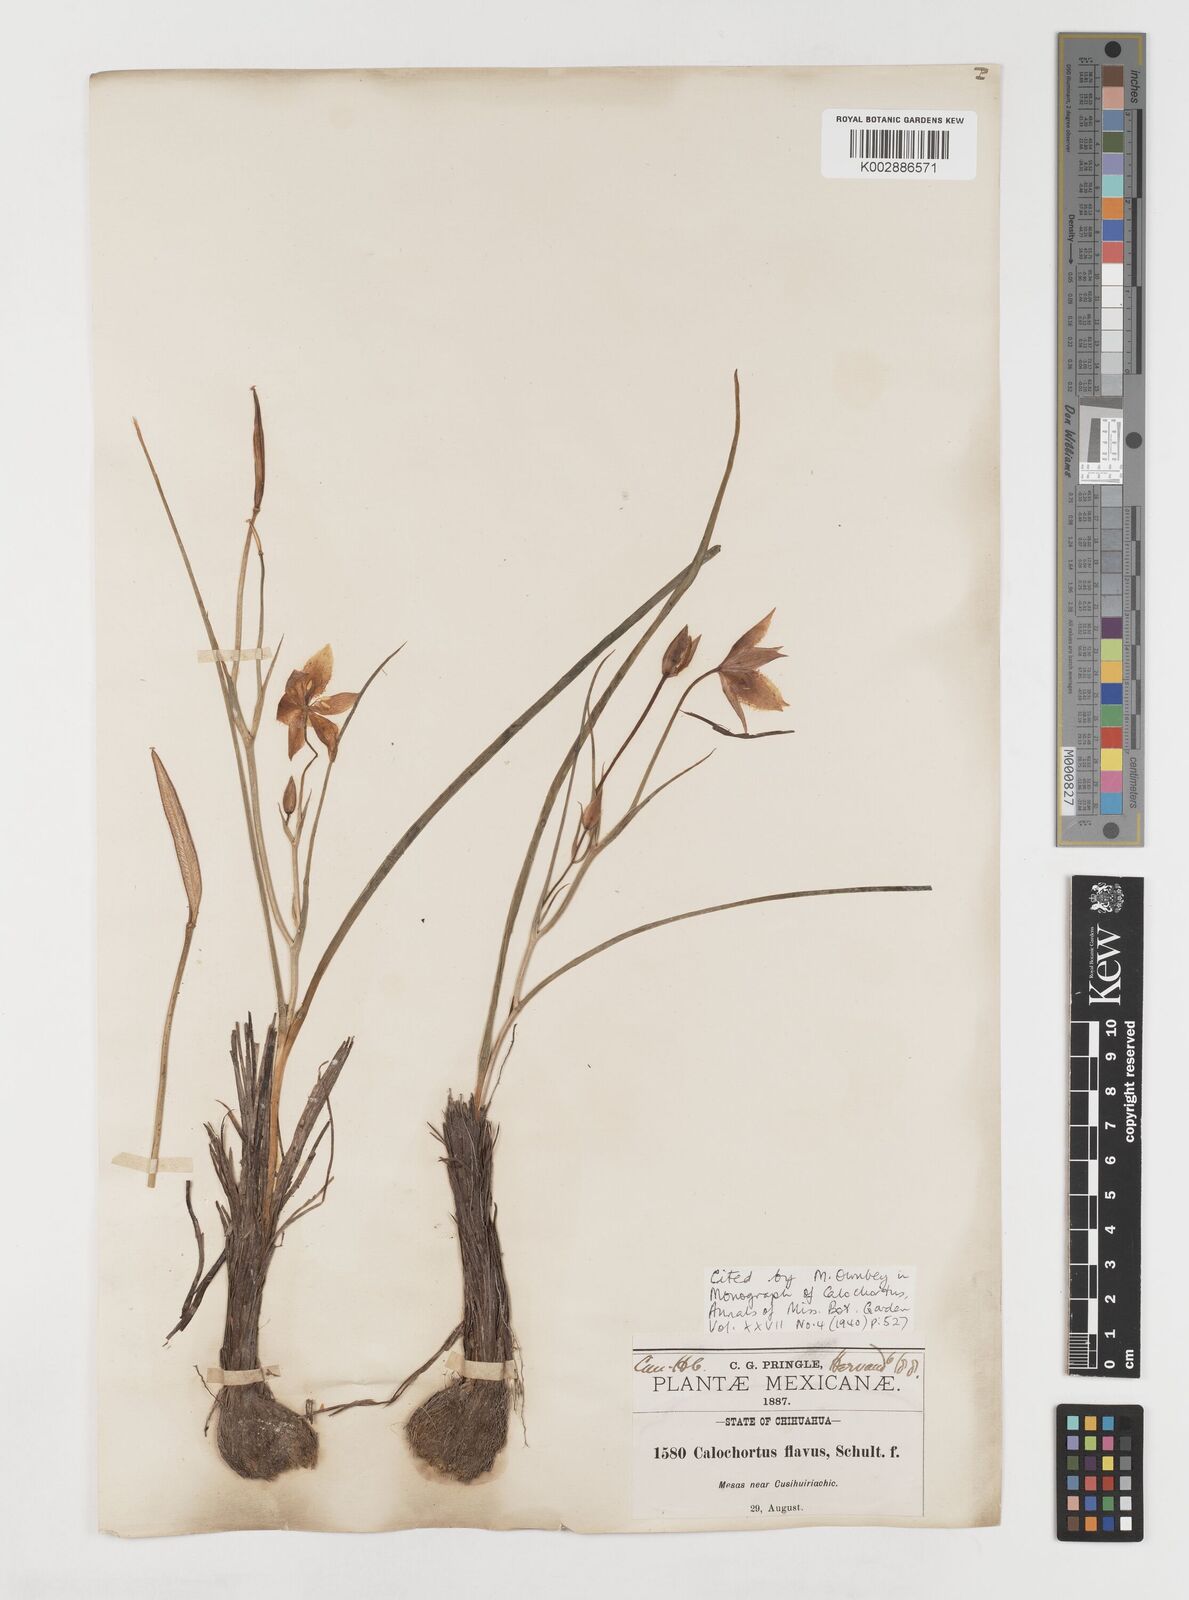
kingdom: Plantae
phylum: Tracheophyta
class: Liliopsida
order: Liliales
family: Liliaceae
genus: Calochortus
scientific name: Calochortus barbatus
